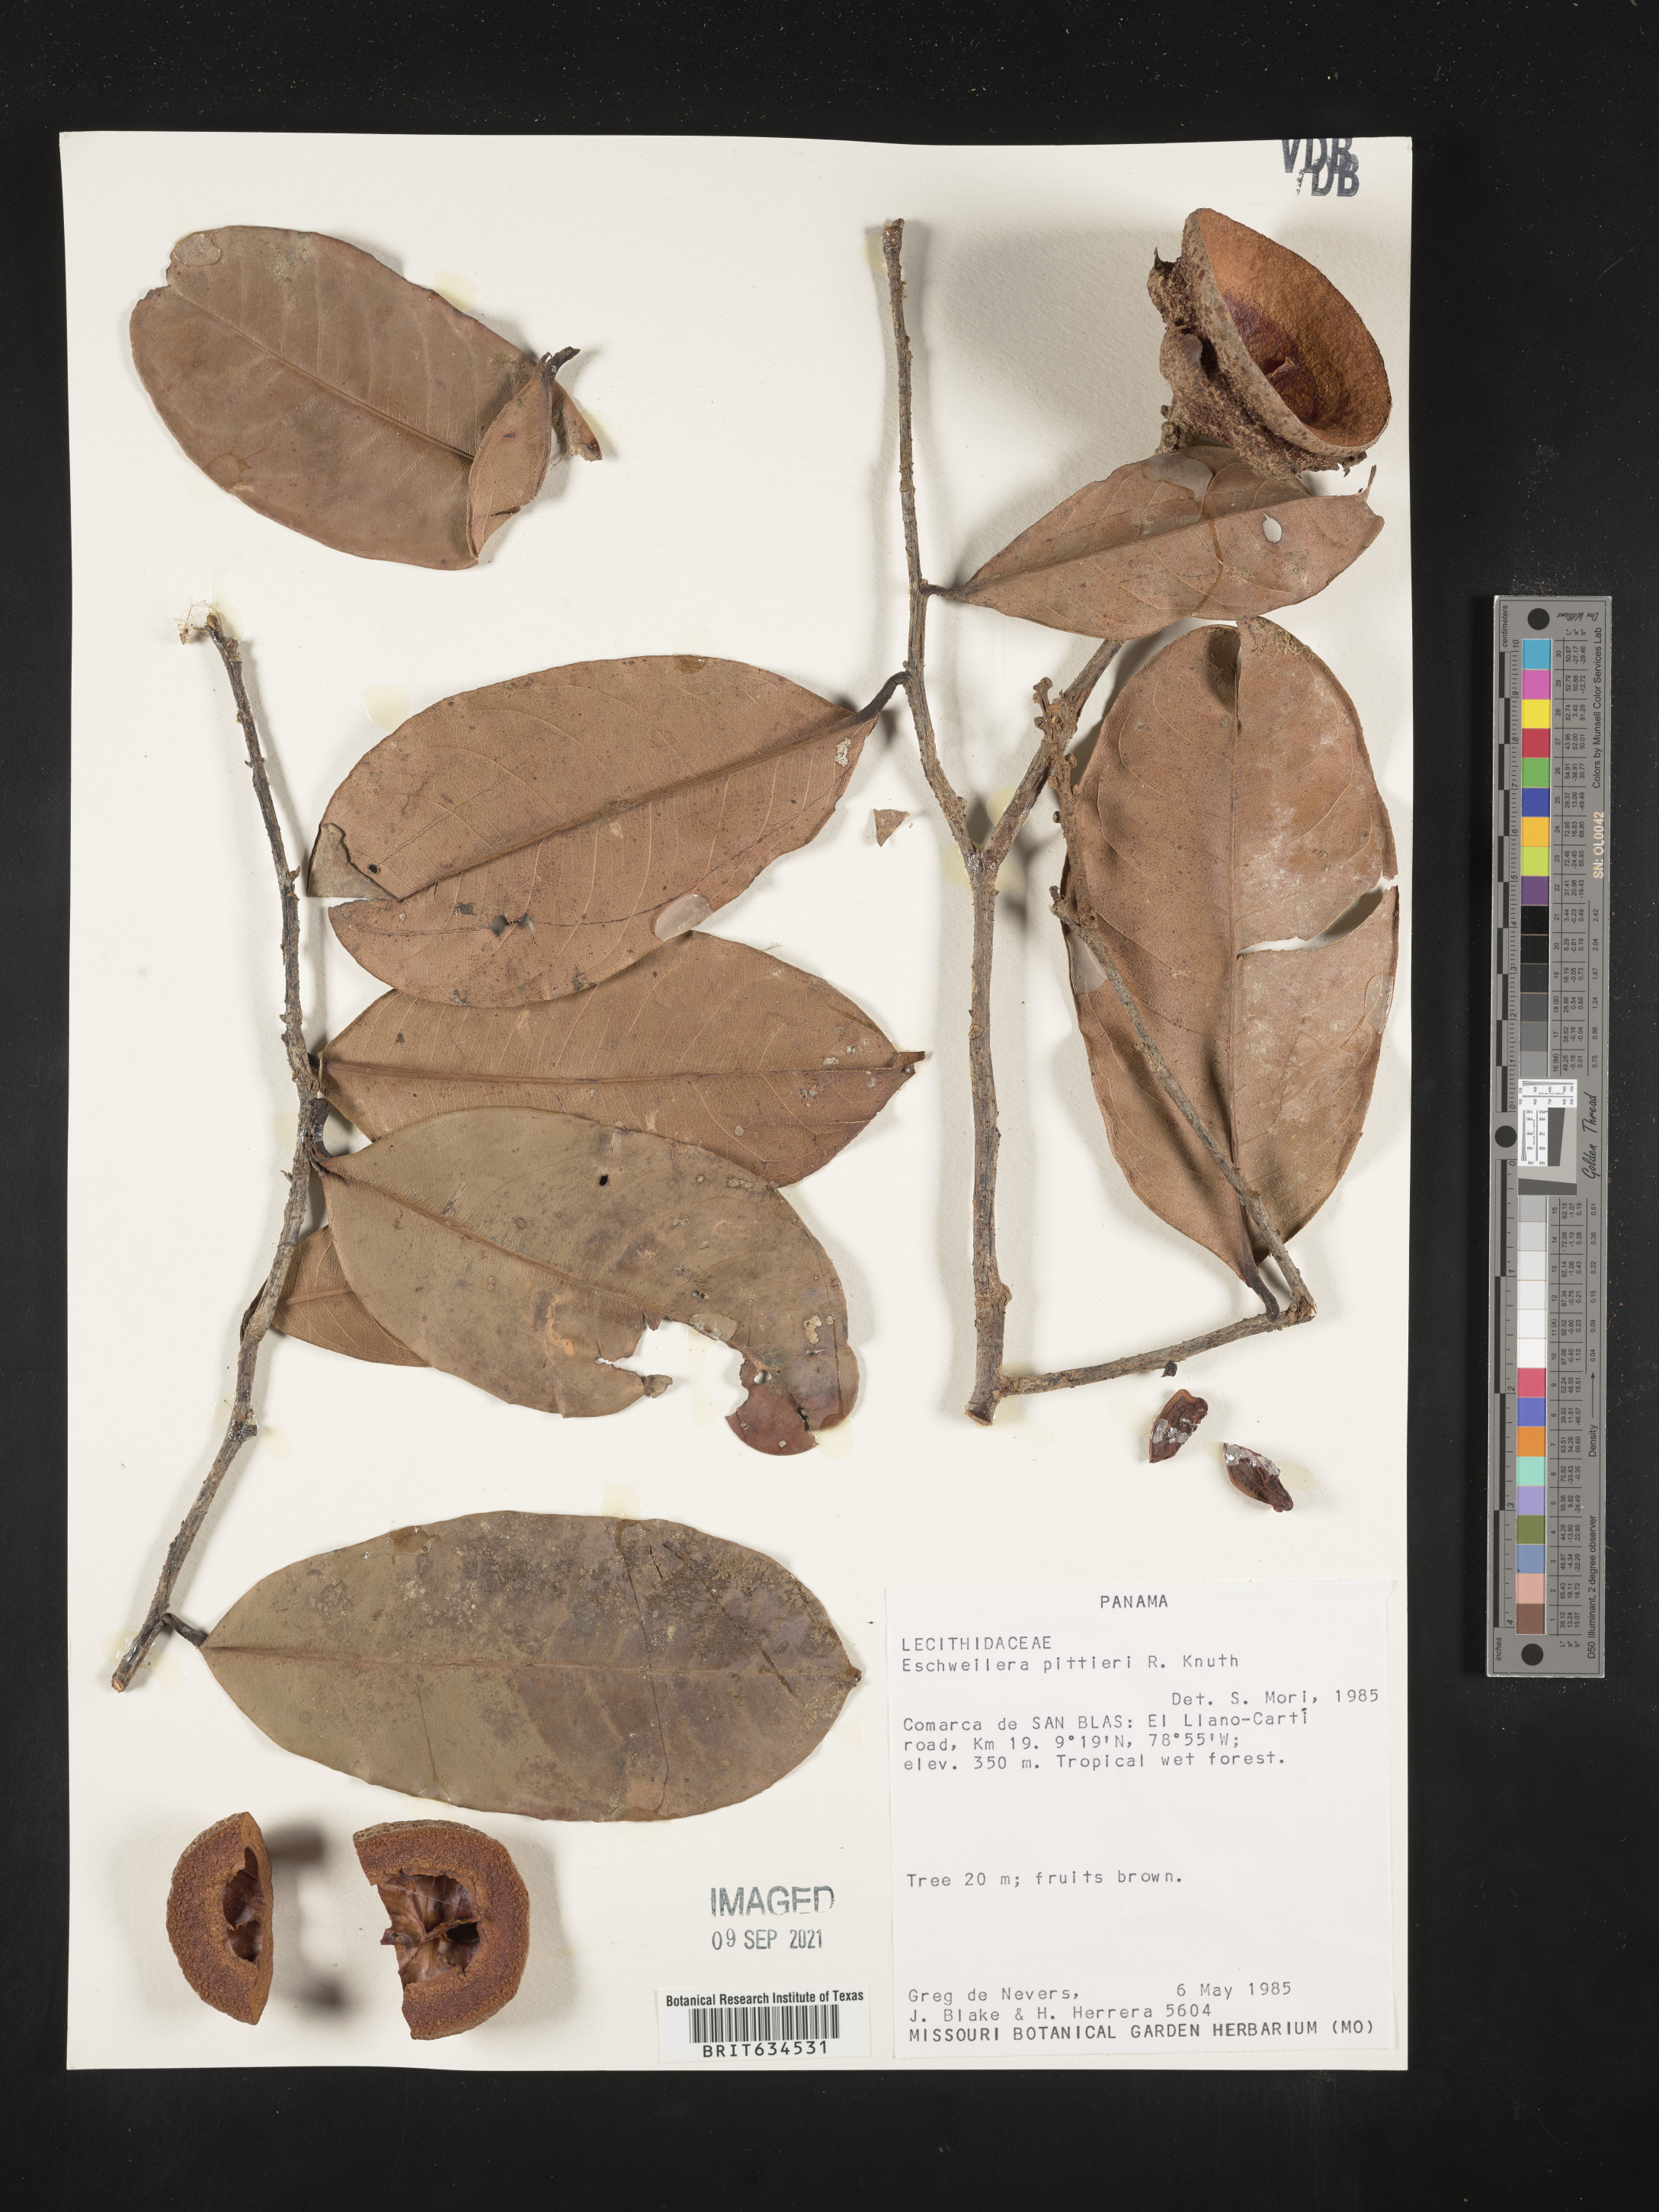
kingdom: Plantae
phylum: Tracheophyta
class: Magnoliopsida
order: Ericales
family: Lecythidaceae
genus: Eschweilera
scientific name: Eschweilera
